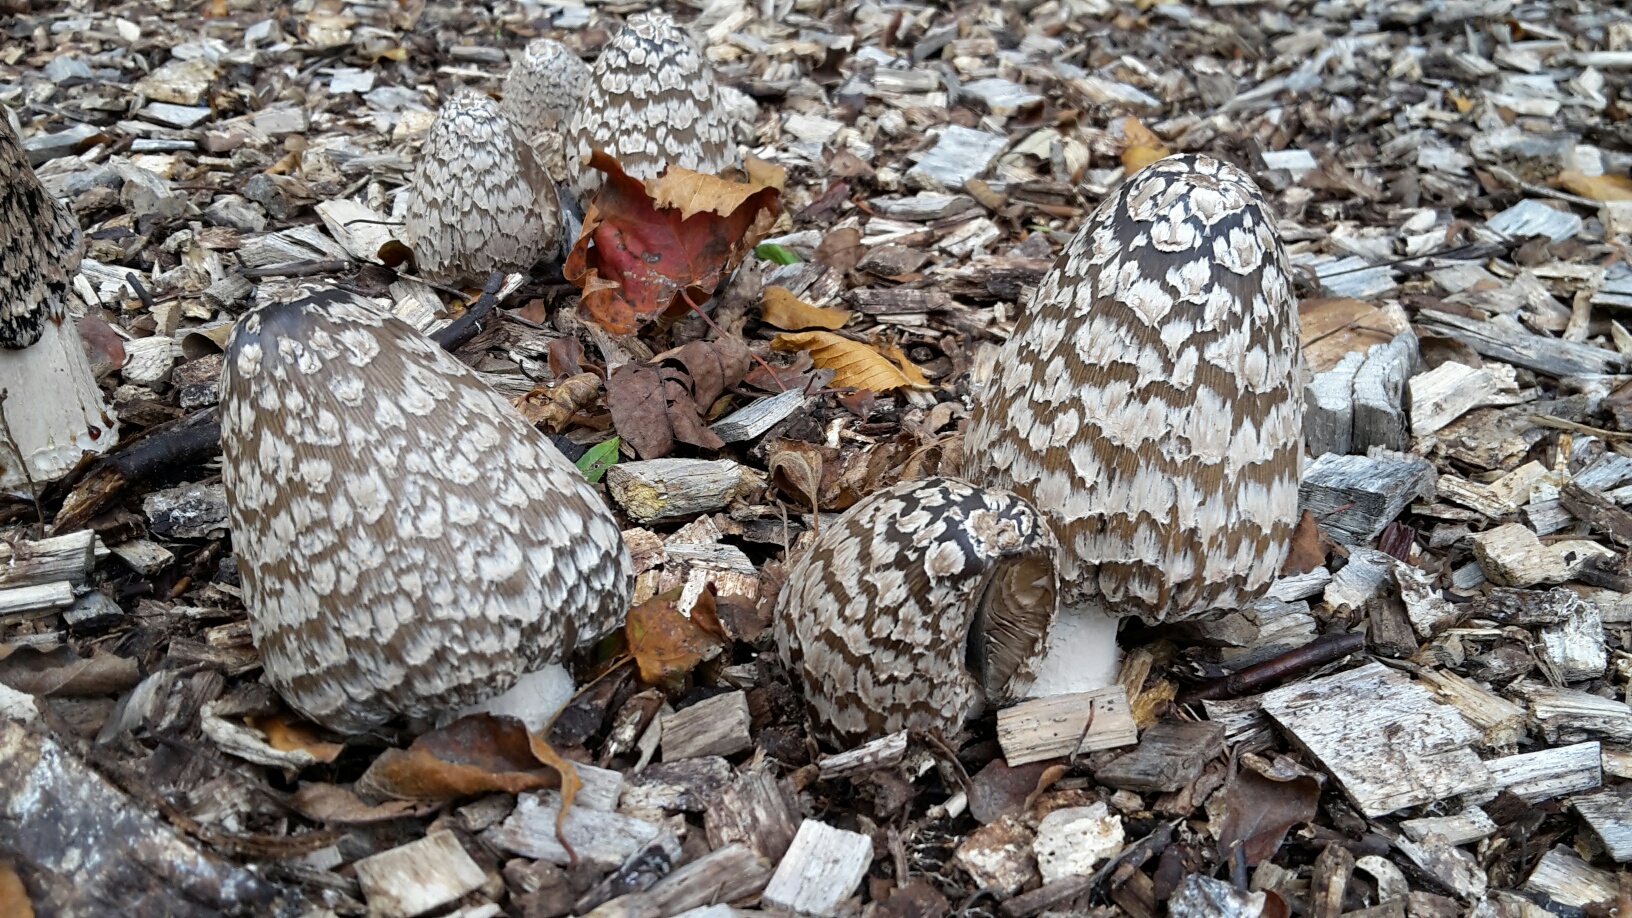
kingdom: Fungi
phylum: Basidiomycota
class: Agaricomycetes
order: Agaricales
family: Psathyrellaceae
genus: Coprinopsis
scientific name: Coprinopsis picacea
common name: skade-blækhat
